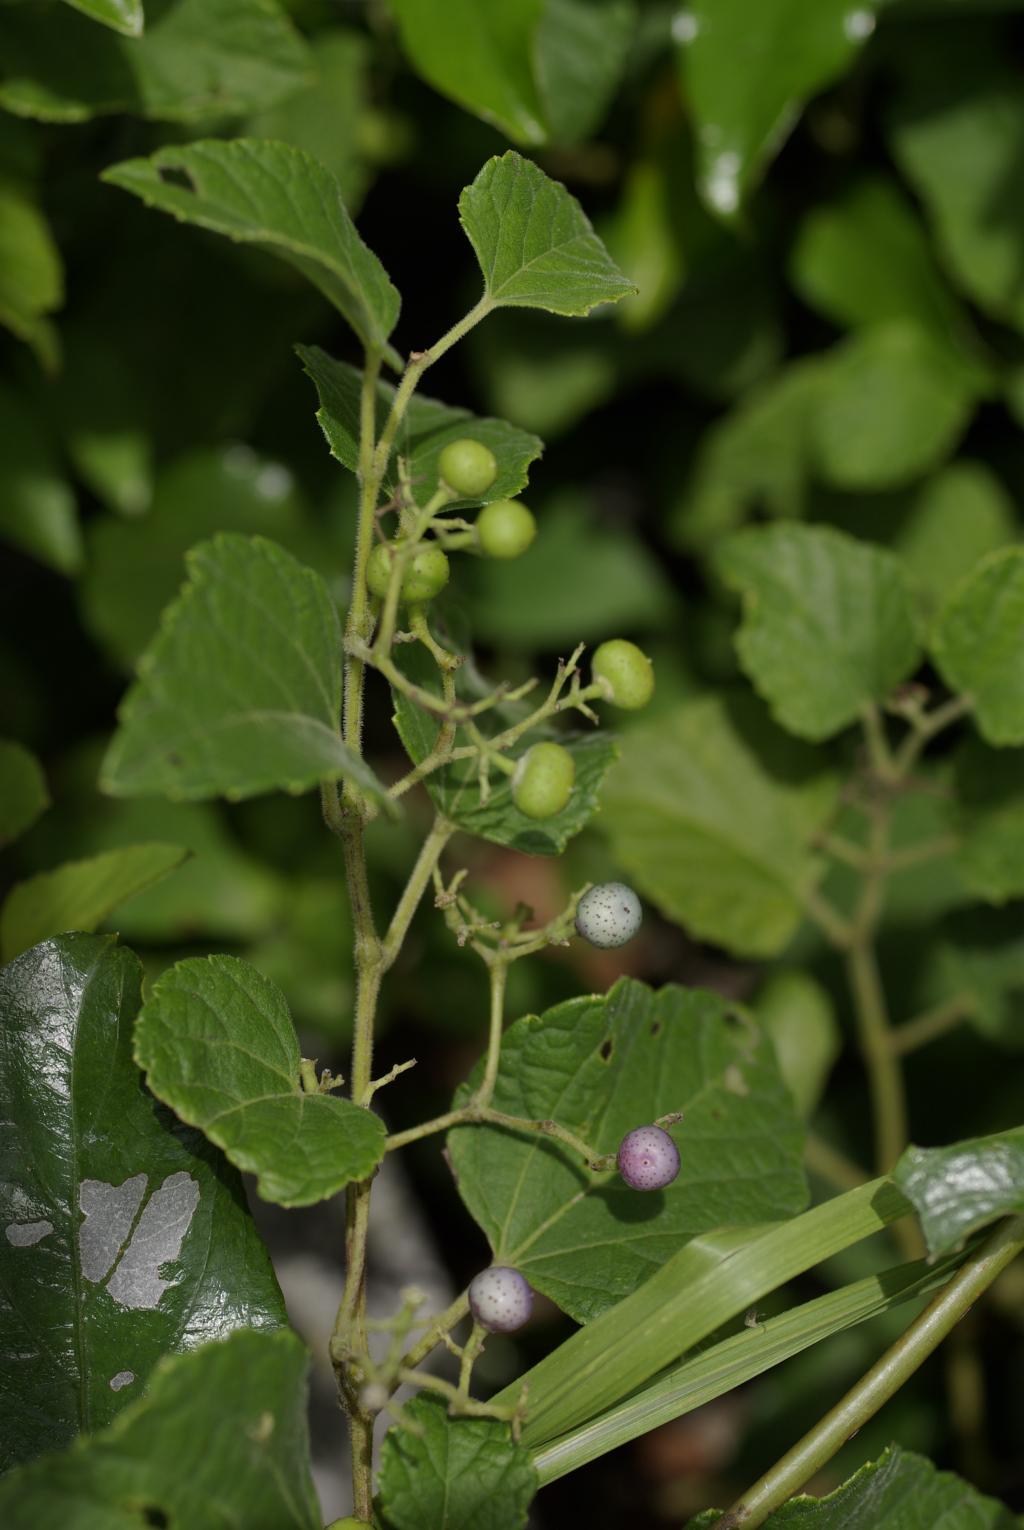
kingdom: Plantae
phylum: Tracheophyta
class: Magnoliopsida
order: Vitales
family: Vitaceae
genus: Ampelopsis
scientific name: Ampelopsis glandulosa
